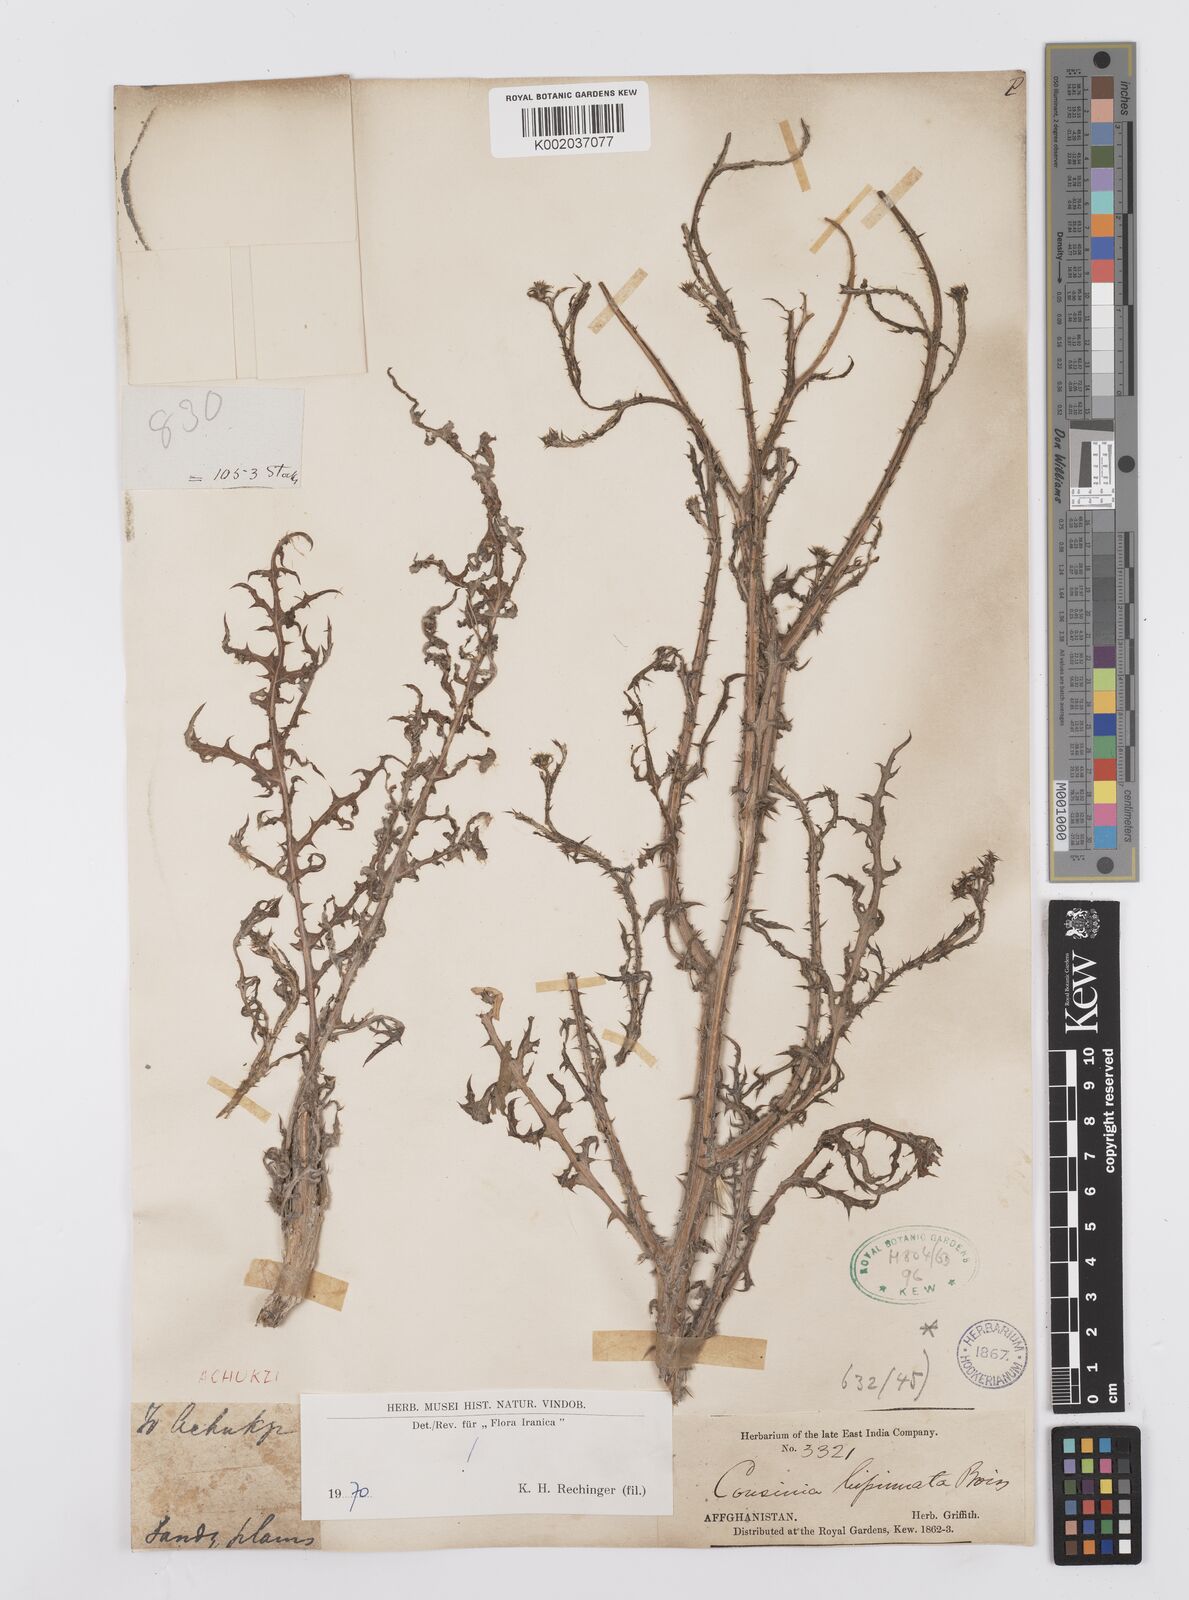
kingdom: Plantae
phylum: Tracheophyta
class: Magnoliopsida
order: Asterales
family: Asteraceae
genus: Cousinia
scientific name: Cousinia bipinnata
